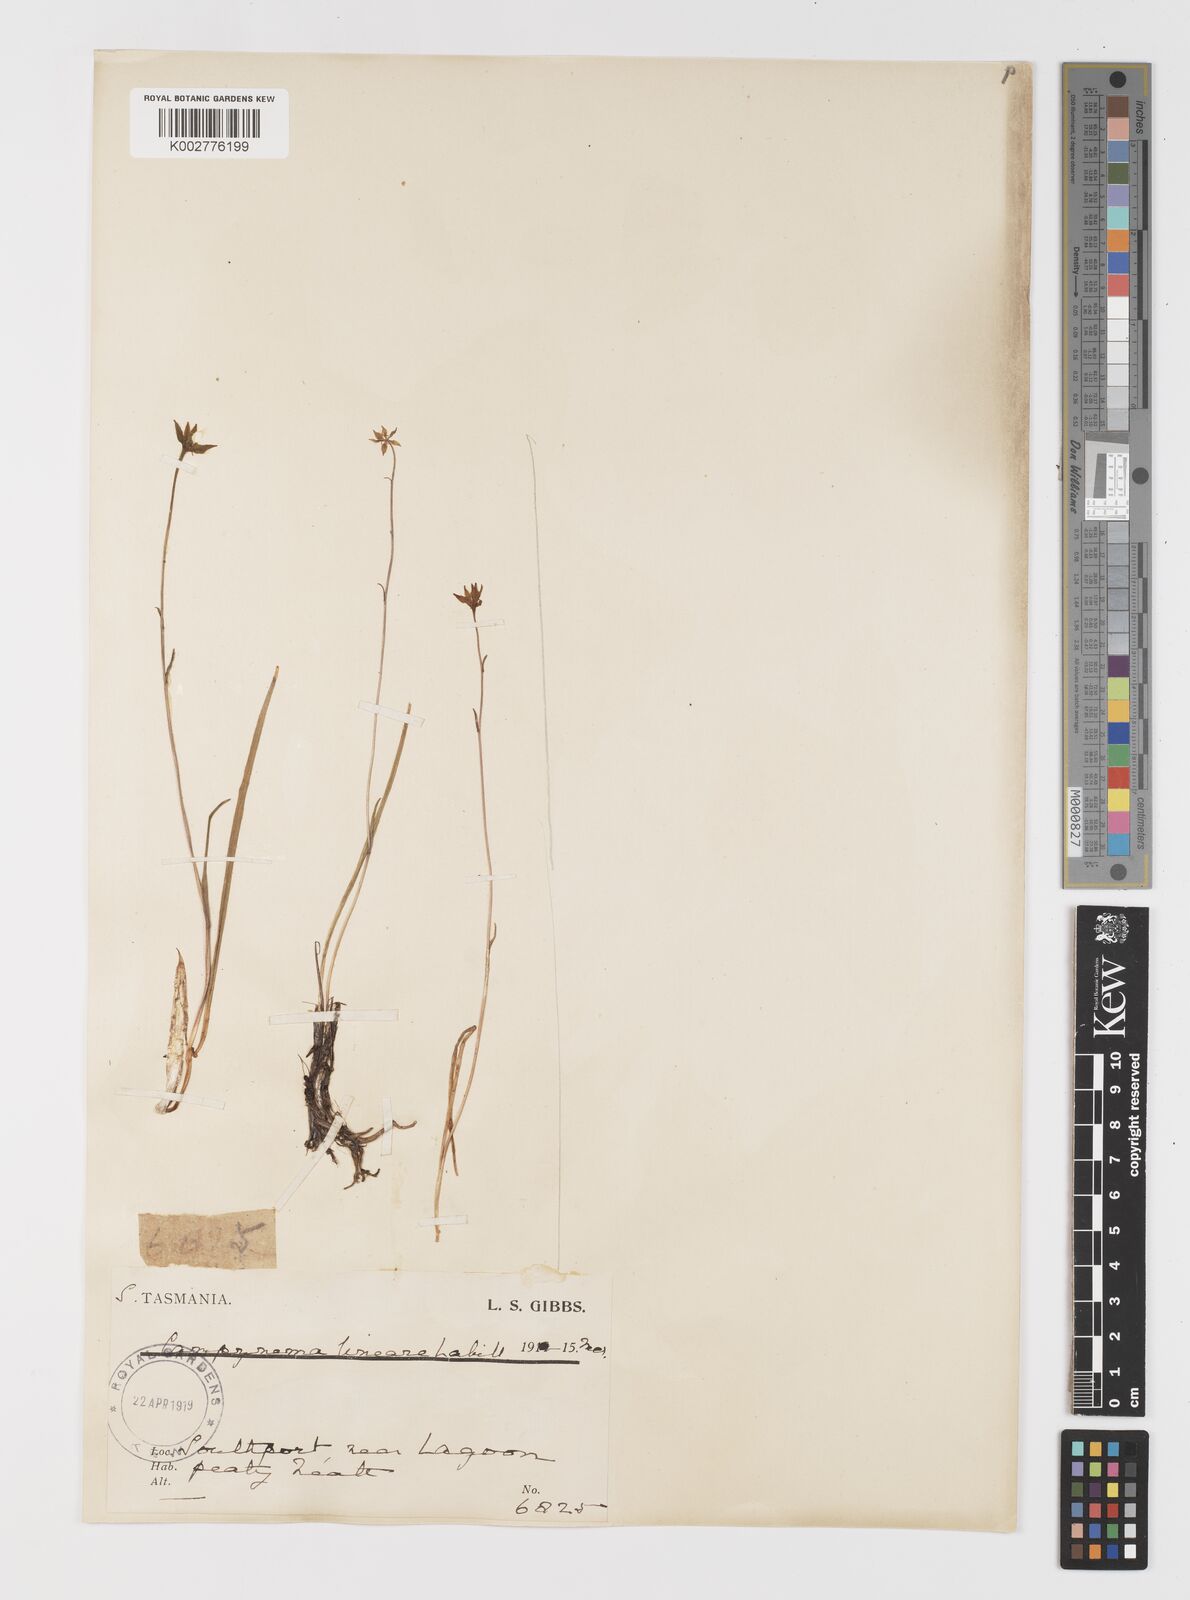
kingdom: Plantae
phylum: Tracheophyta
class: Liliopsida
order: Liliales
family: Campynemataceae
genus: Campynema
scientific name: Campynema lineare
